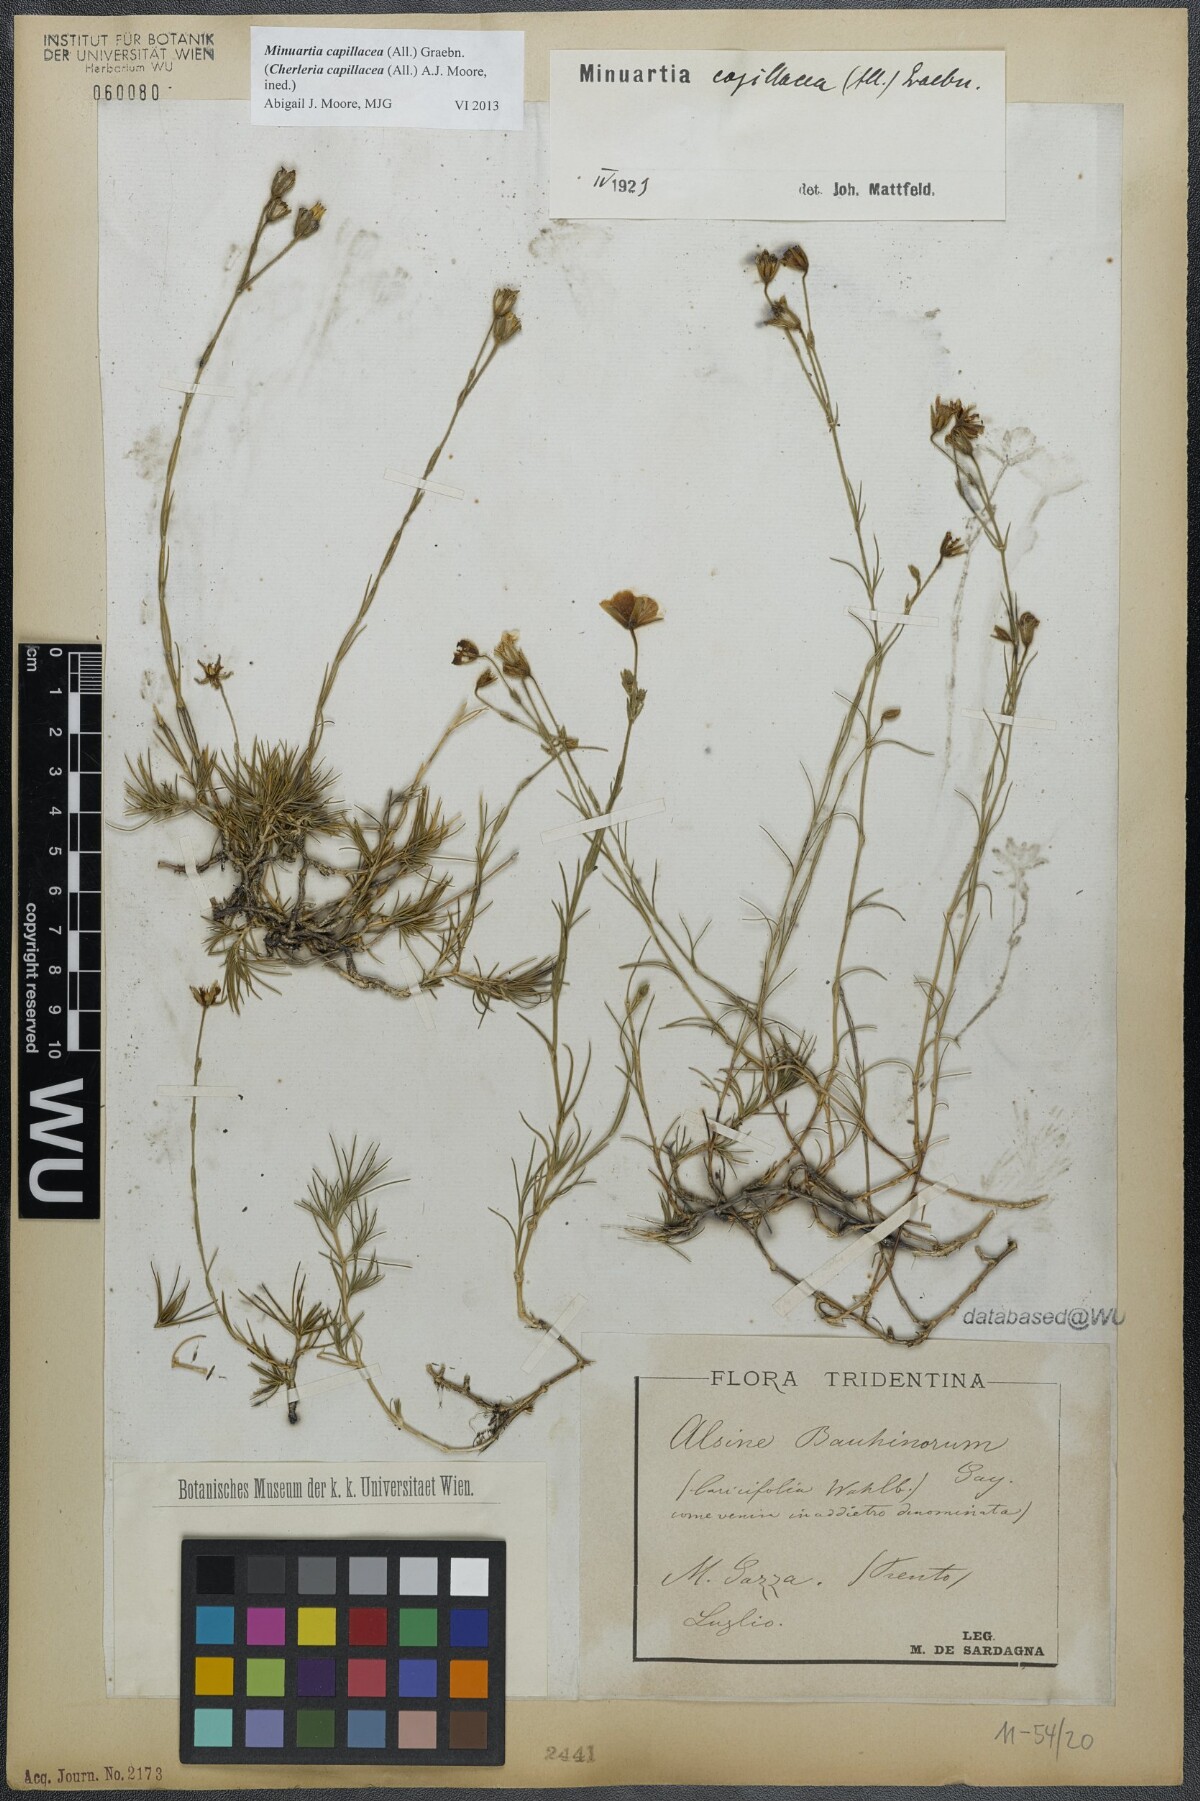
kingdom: Plantae
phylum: Tracheophyta
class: Magnoliopsida
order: Caryophyllales
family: Caryophyllaceae
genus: Cherleria
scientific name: Cherleria capillacea
